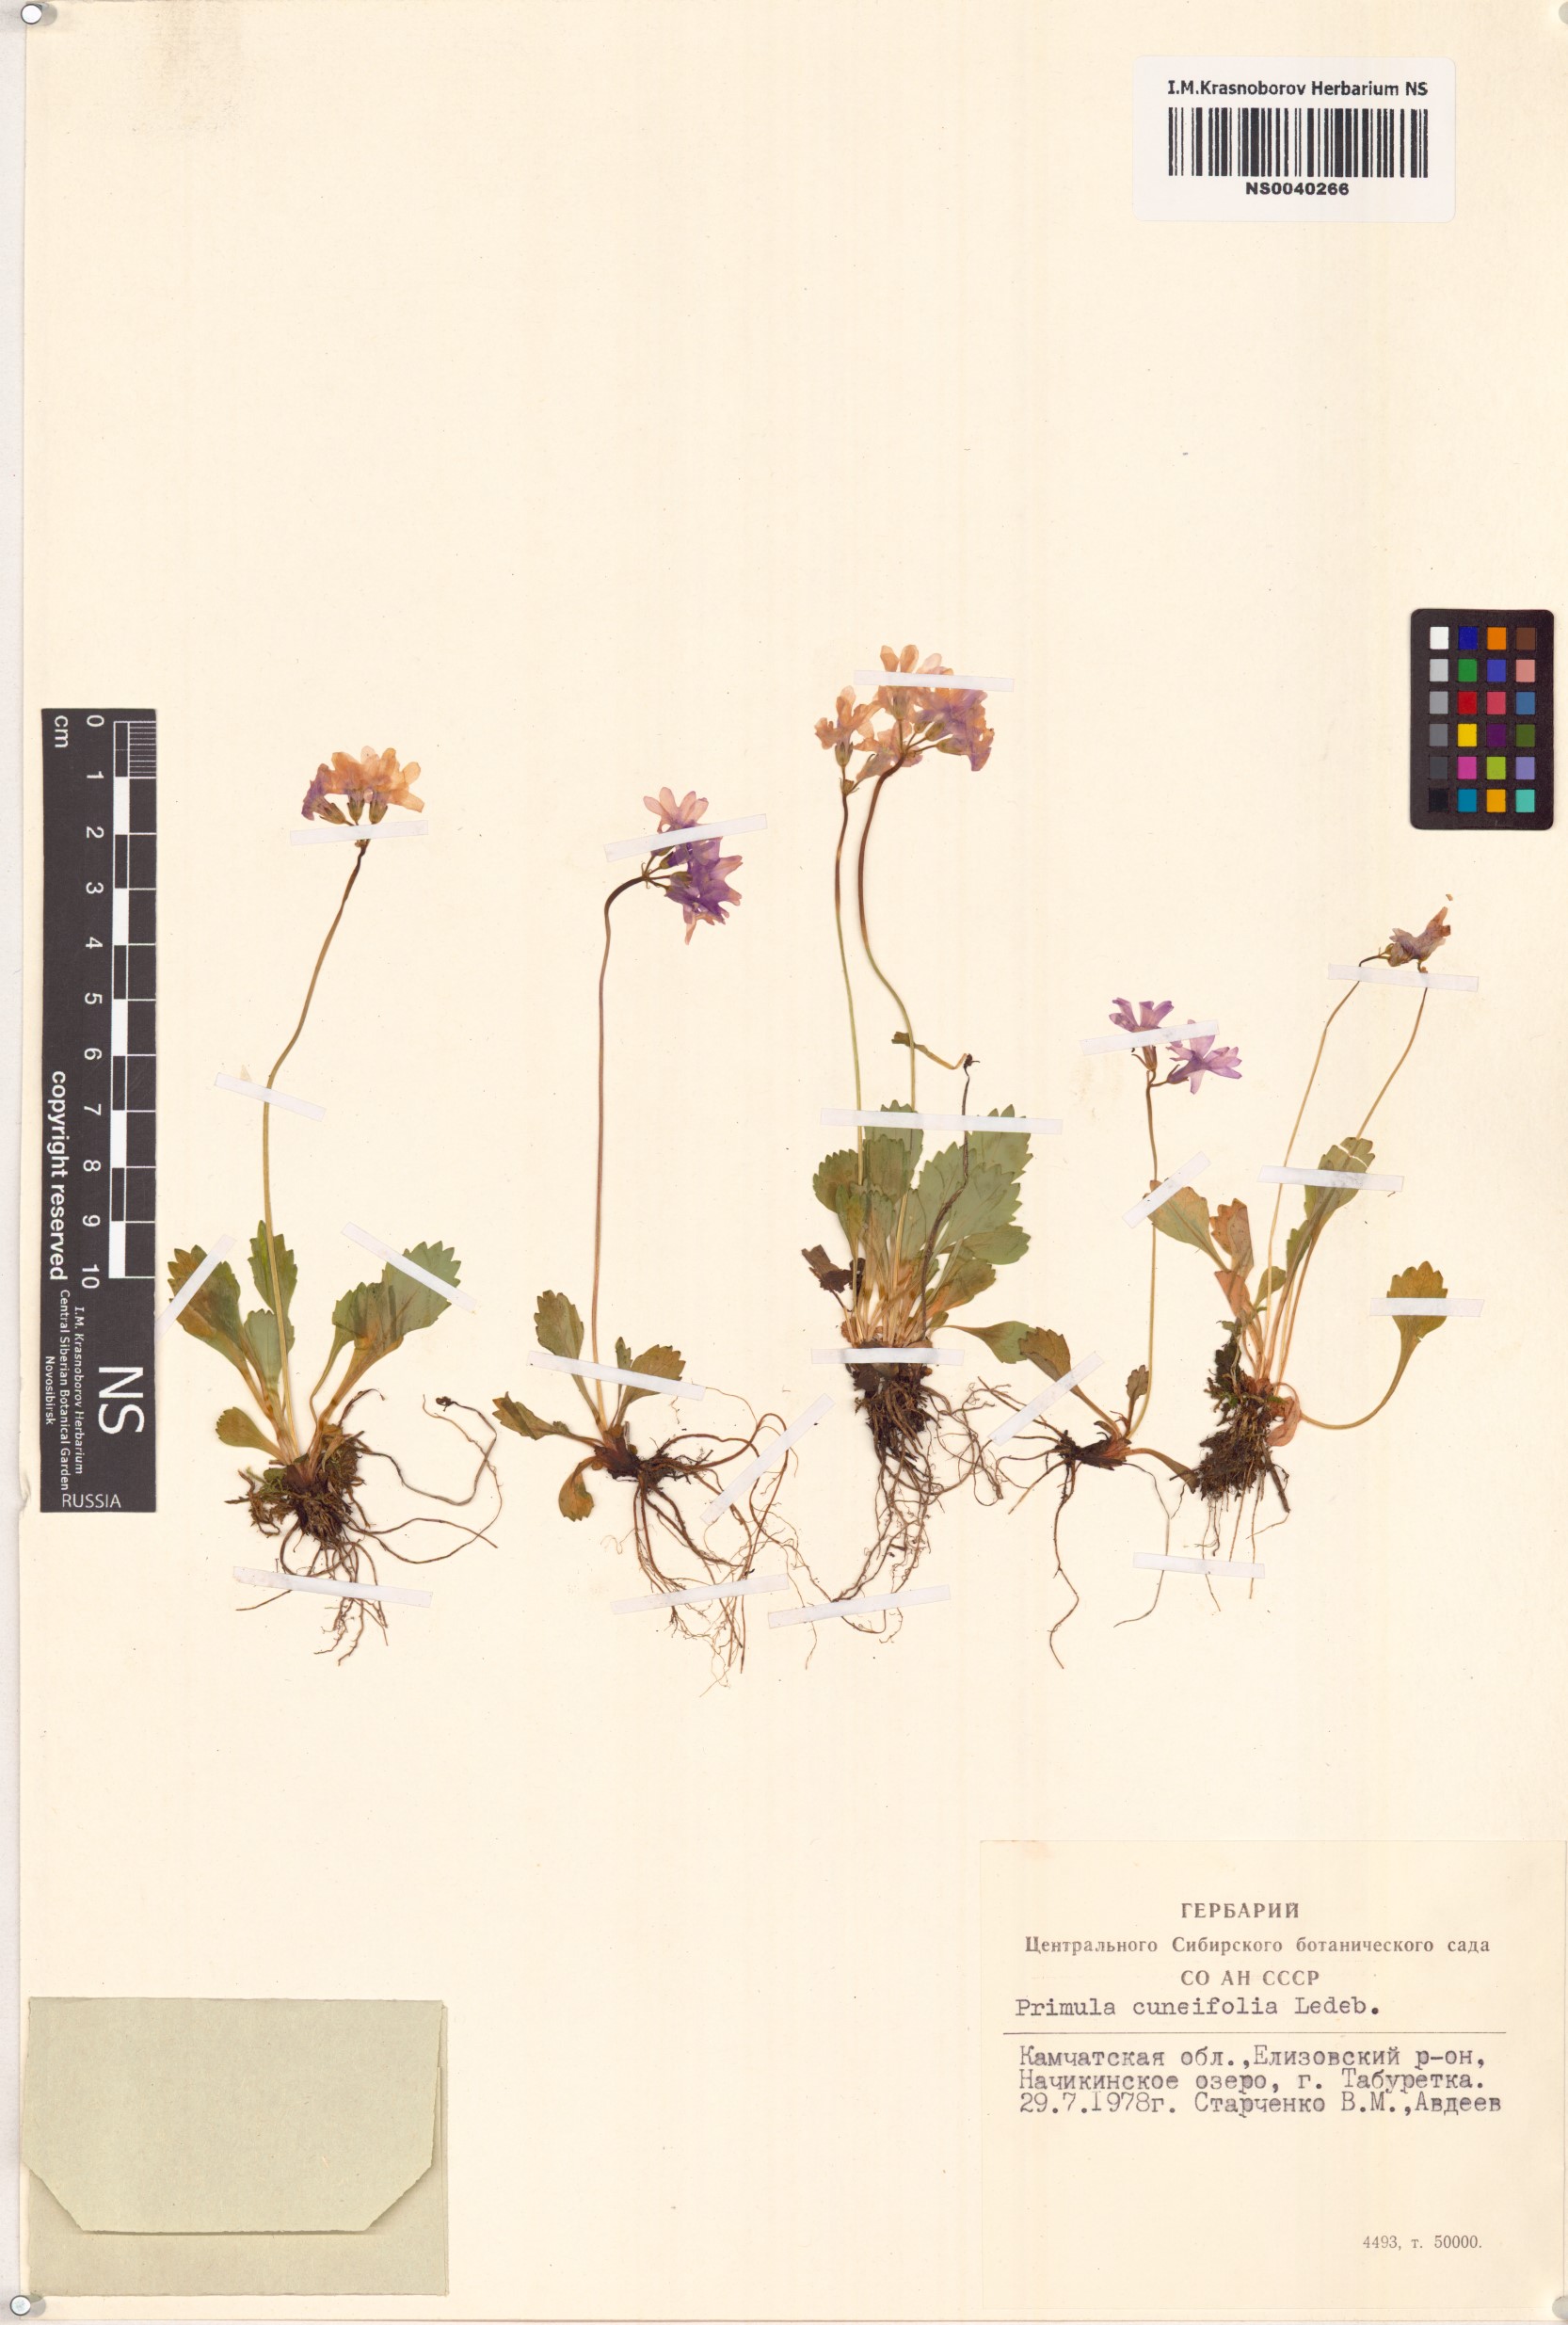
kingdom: Plantae
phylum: Tracheophyta
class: Magnoliopsida
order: Ericales
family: Primulaceae
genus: Primula
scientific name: Primula cuneifolia
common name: Wedge-leaved primrose
